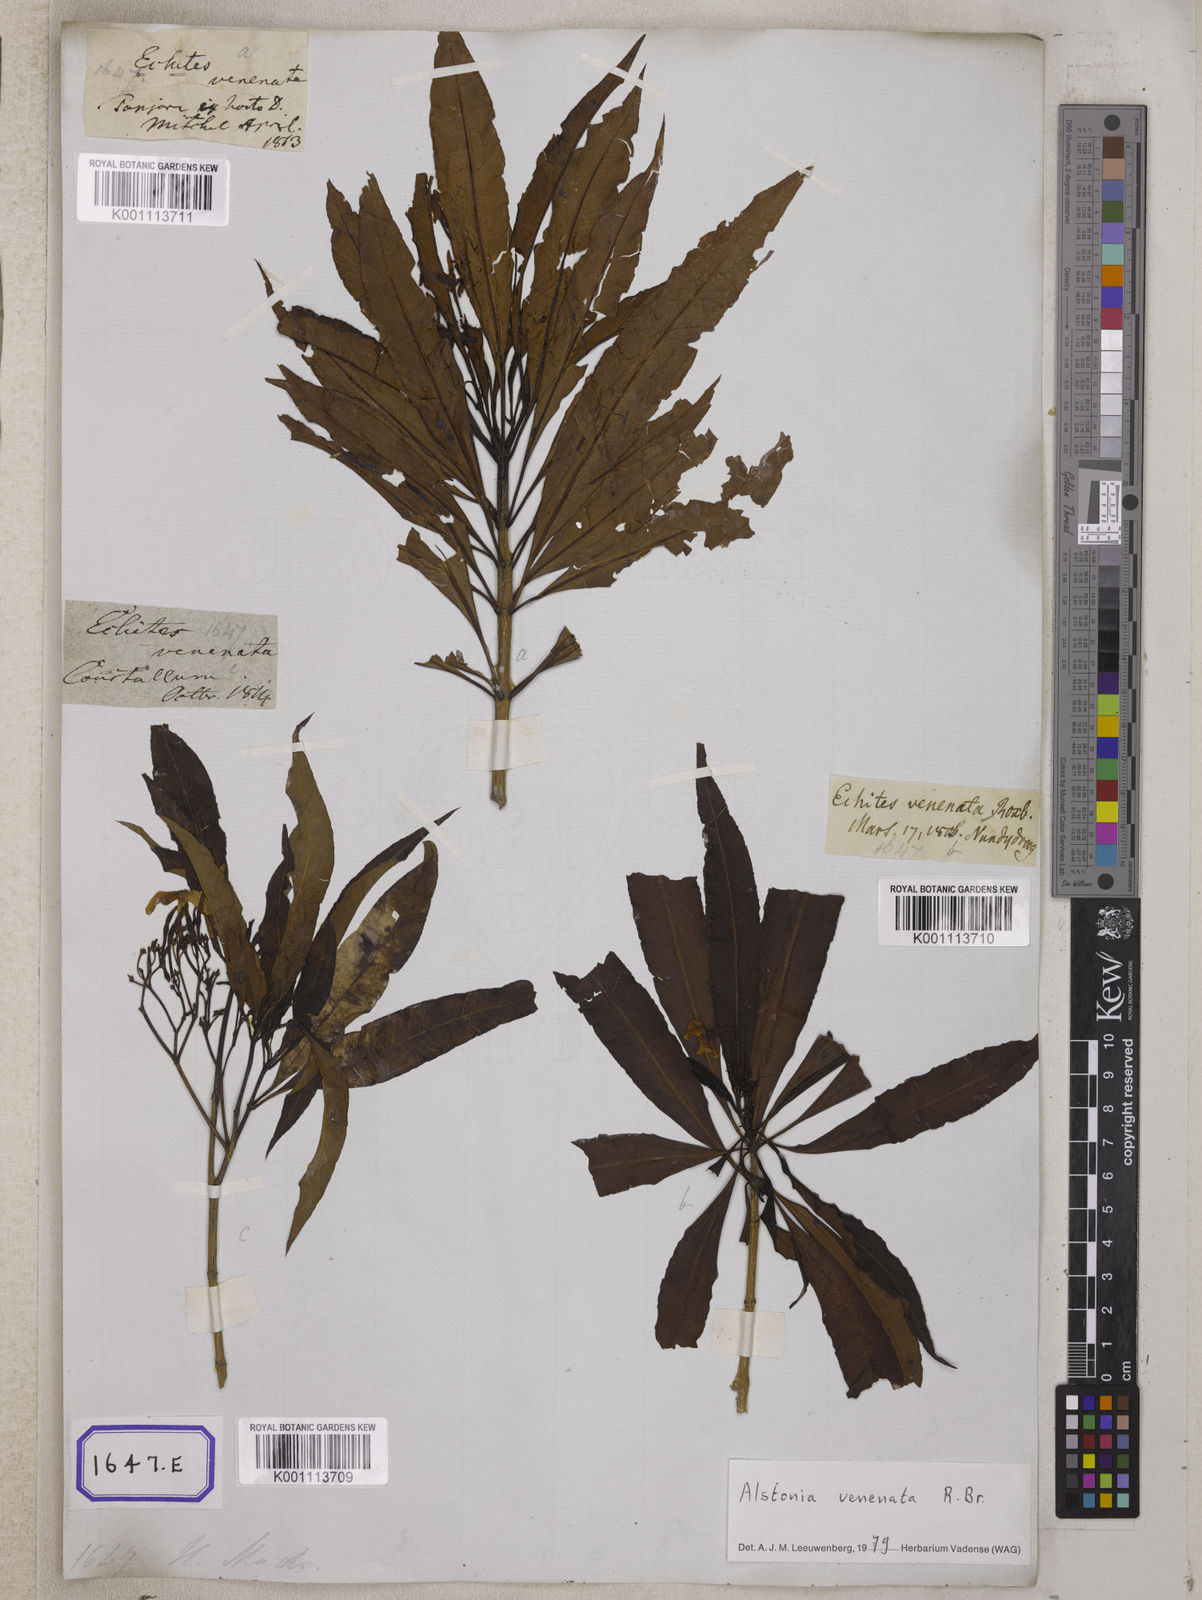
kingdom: Plantae
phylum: Tracheophyta
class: Magnoliopsida
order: Gentianales
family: Apocynaceae
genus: Alstonia
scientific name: Alstonia venenata
